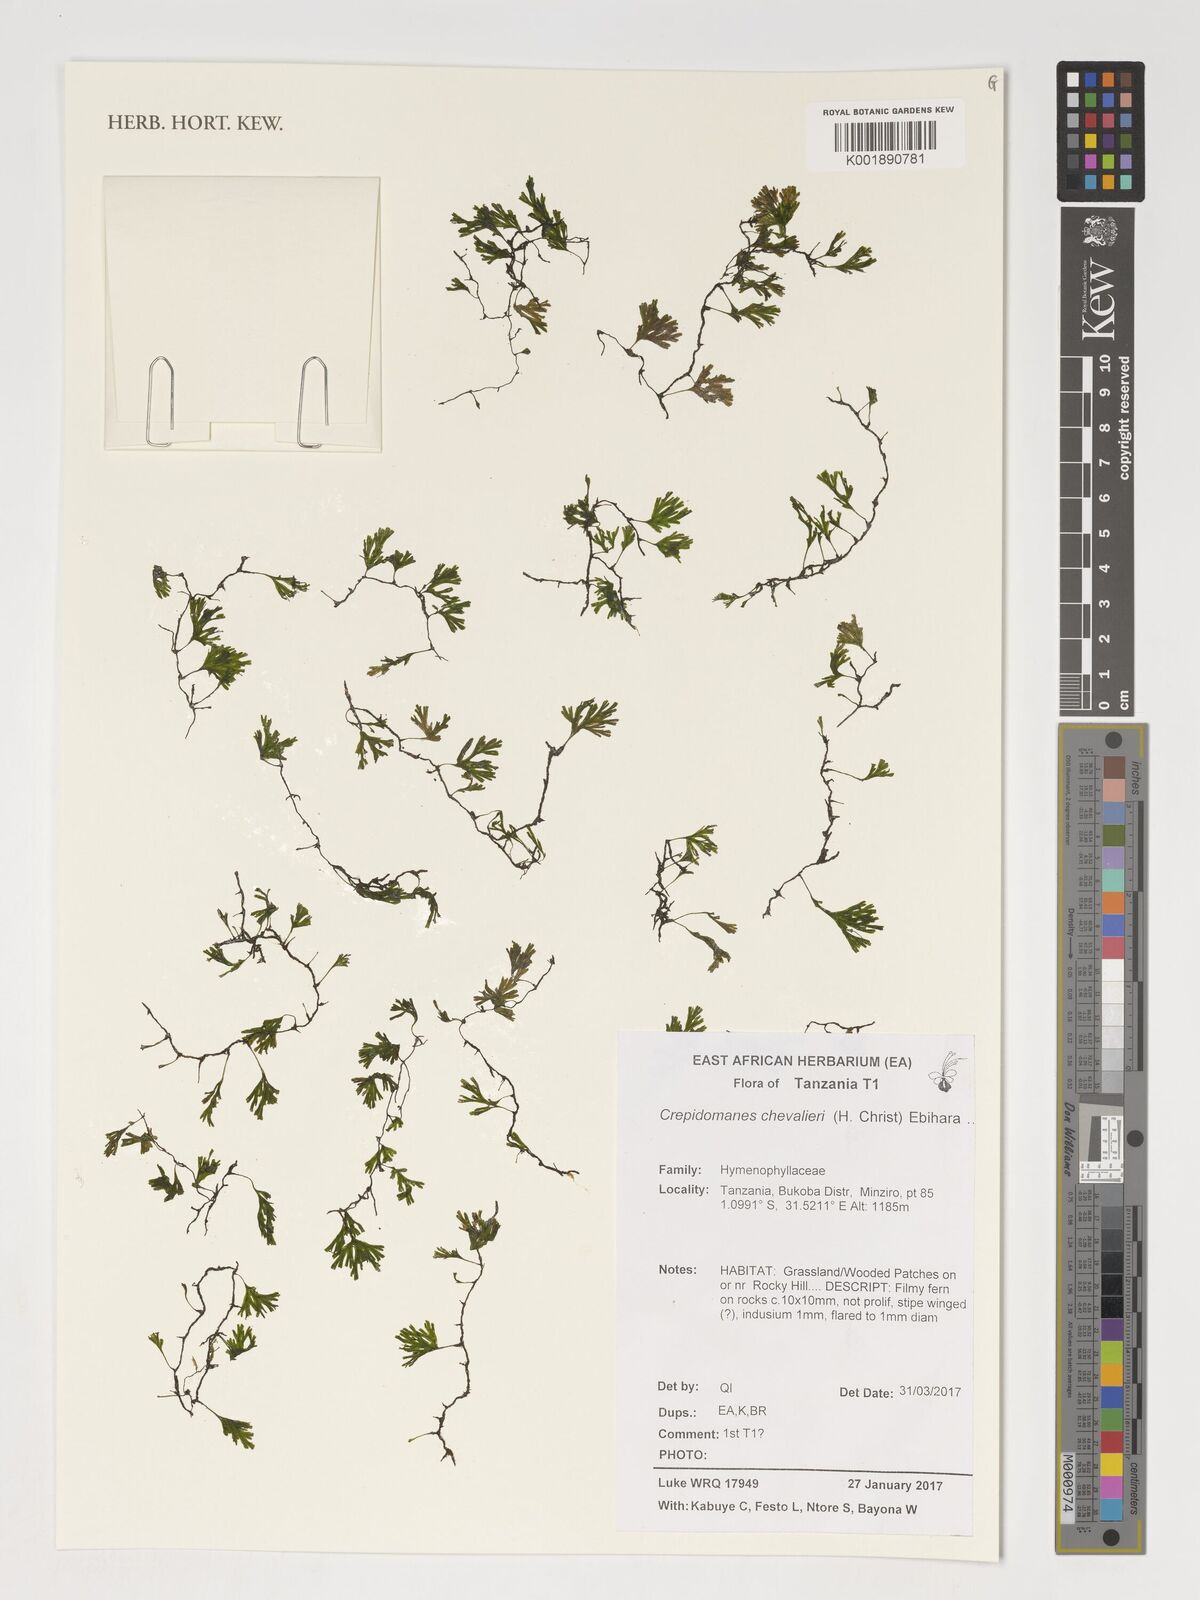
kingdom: Plantae
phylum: Tracheophyta
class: Polypodiopsida
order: Hymenophyllales
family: Hymenophyllaceae
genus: Crepidomanes
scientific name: Crepidomanes chevalieri
